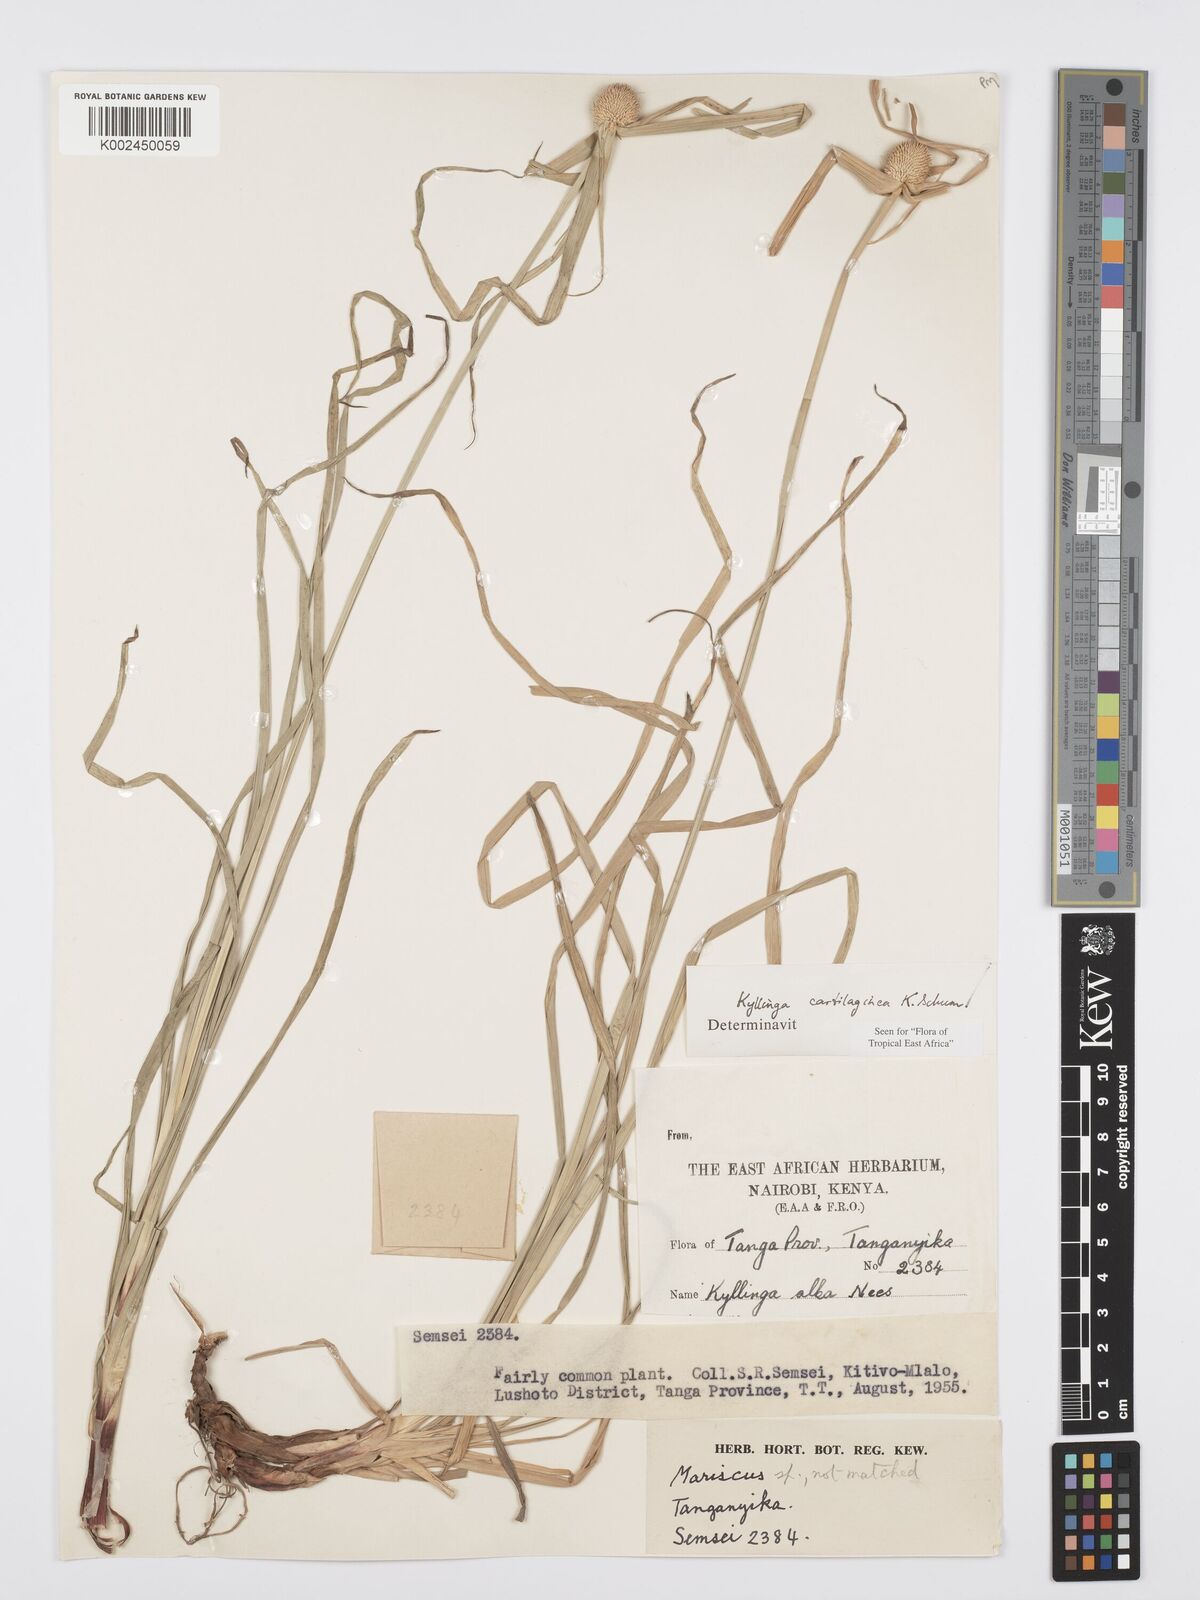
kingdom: Plantae
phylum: Tracheophyta
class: Liliopsida
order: Poales
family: Cyperaceae
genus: Cyperus
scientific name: Cyperus cartilagineus
